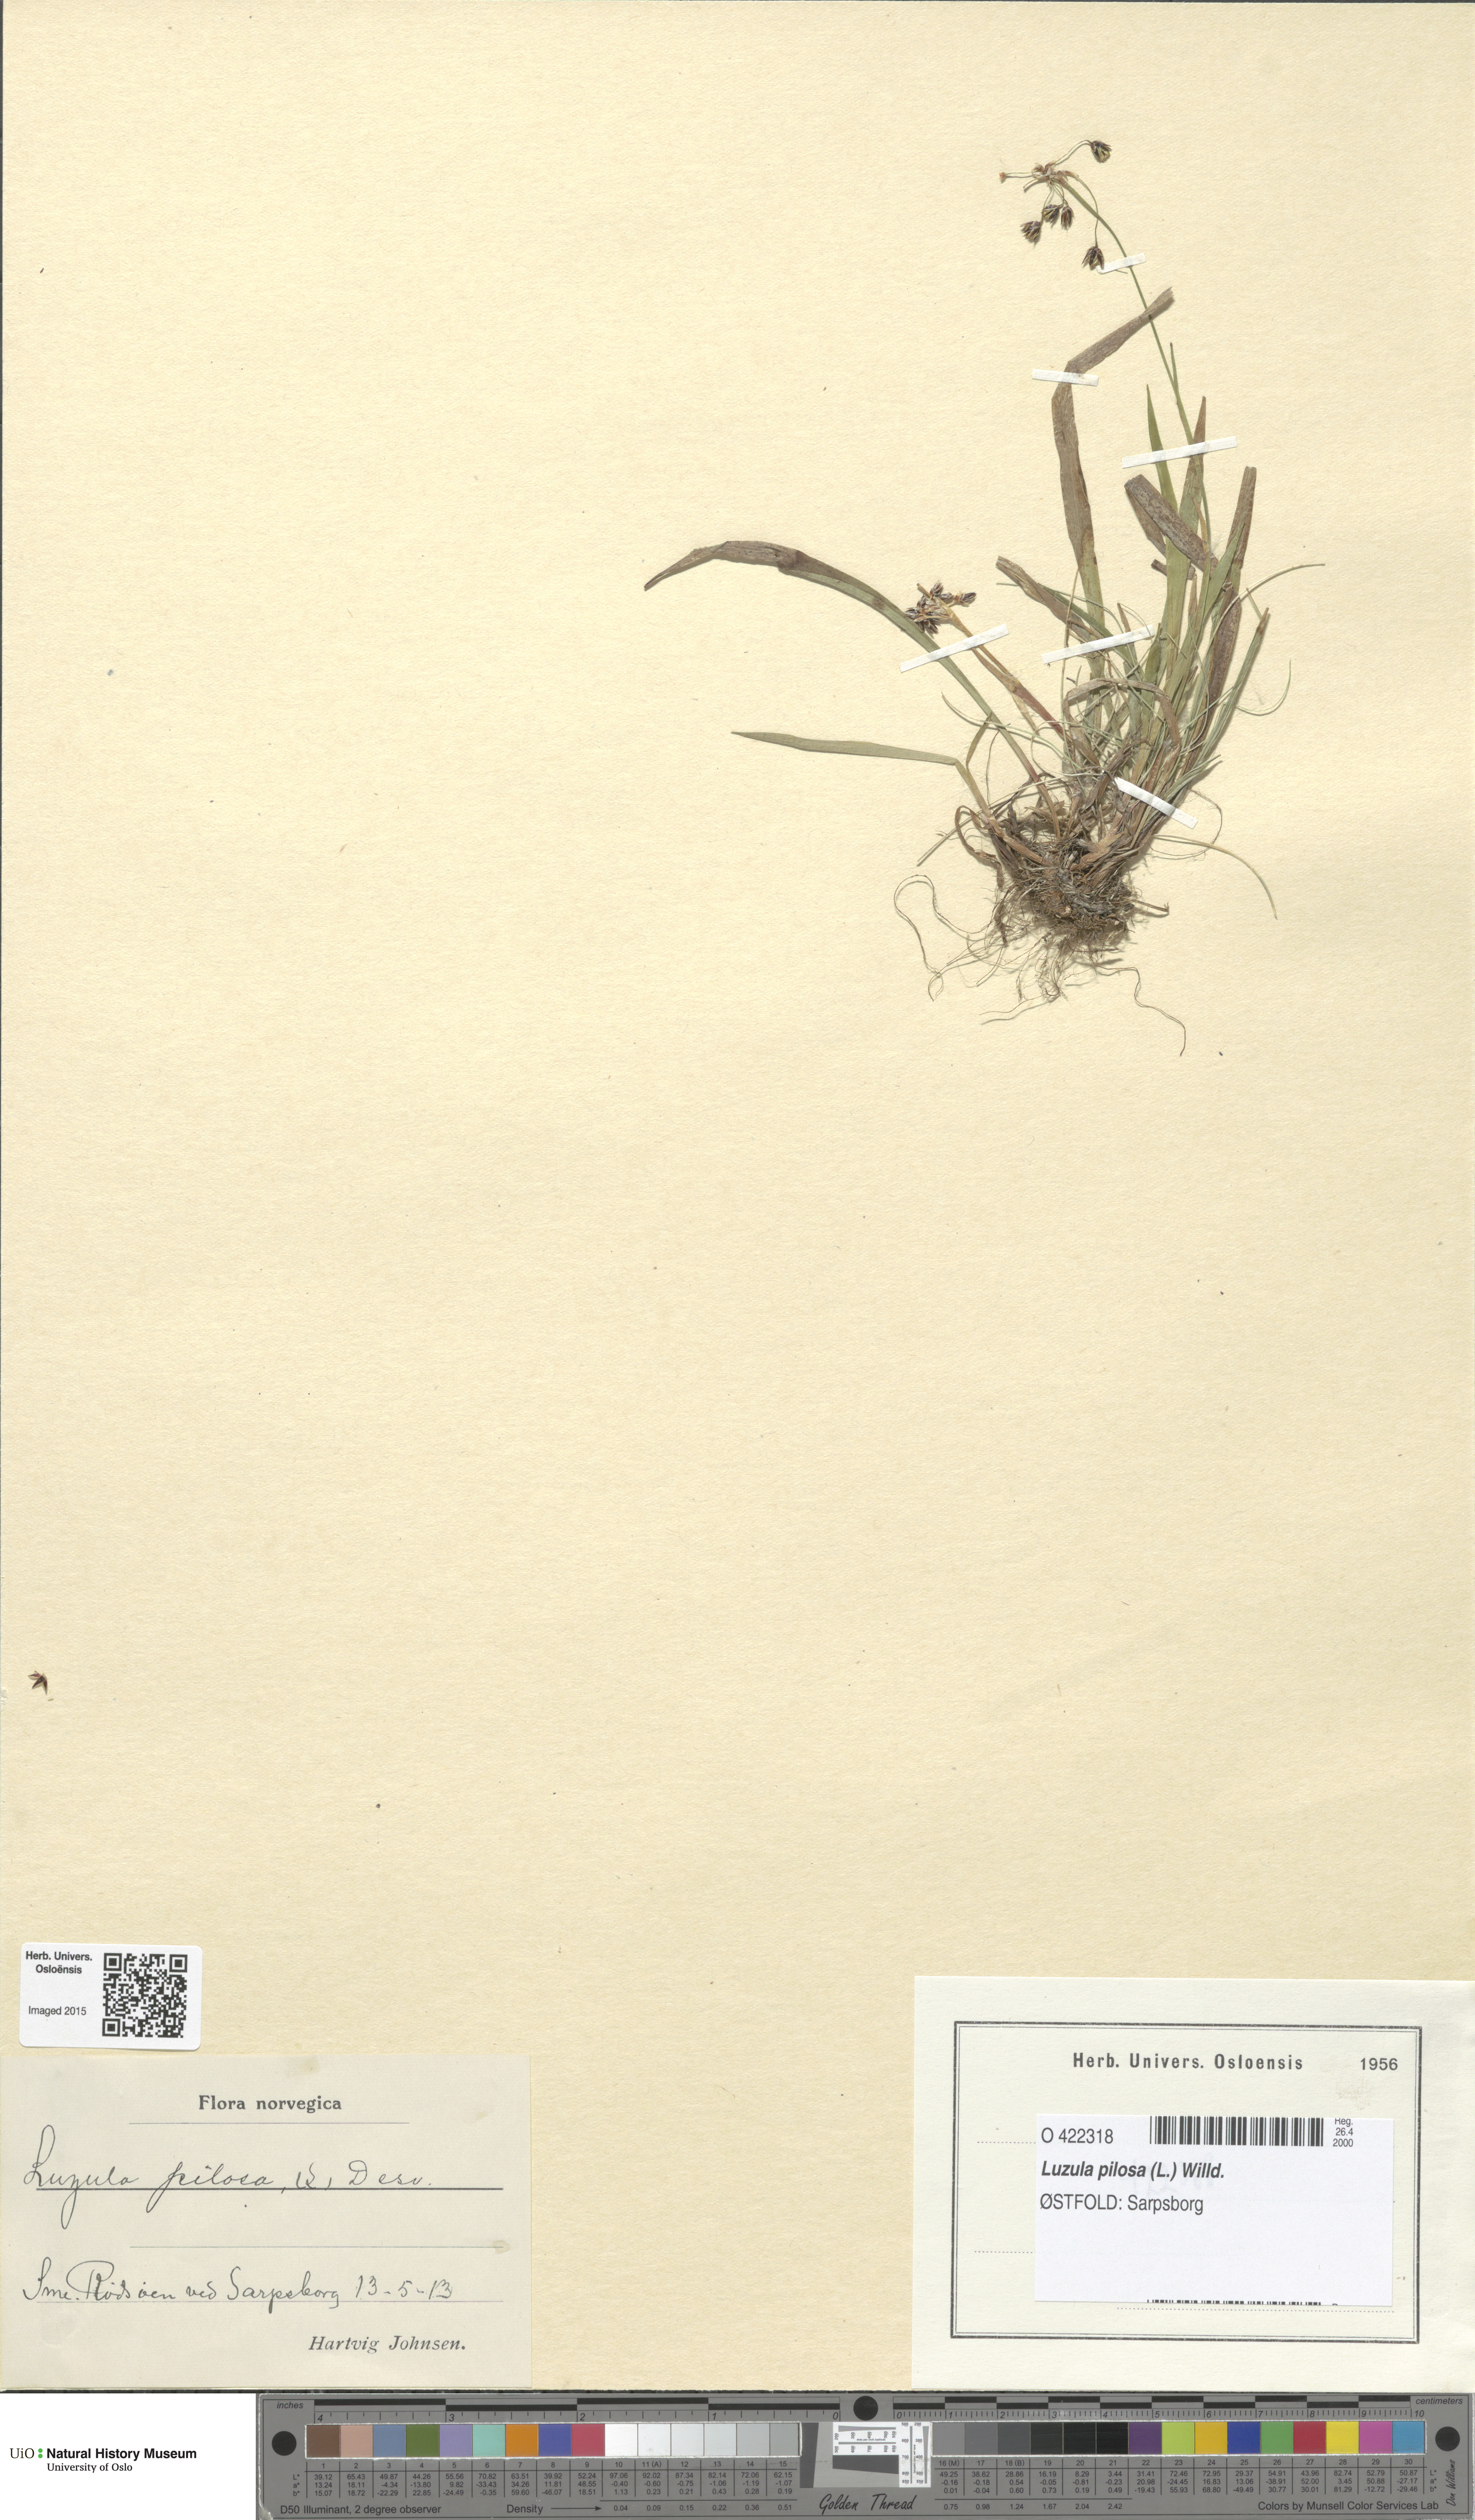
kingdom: Plantae
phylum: Tracheophyta
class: Liliopsida
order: Poales
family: Juncaceae
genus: Luzula
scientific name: Luzula pilosa
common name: Hairy wood-rush
